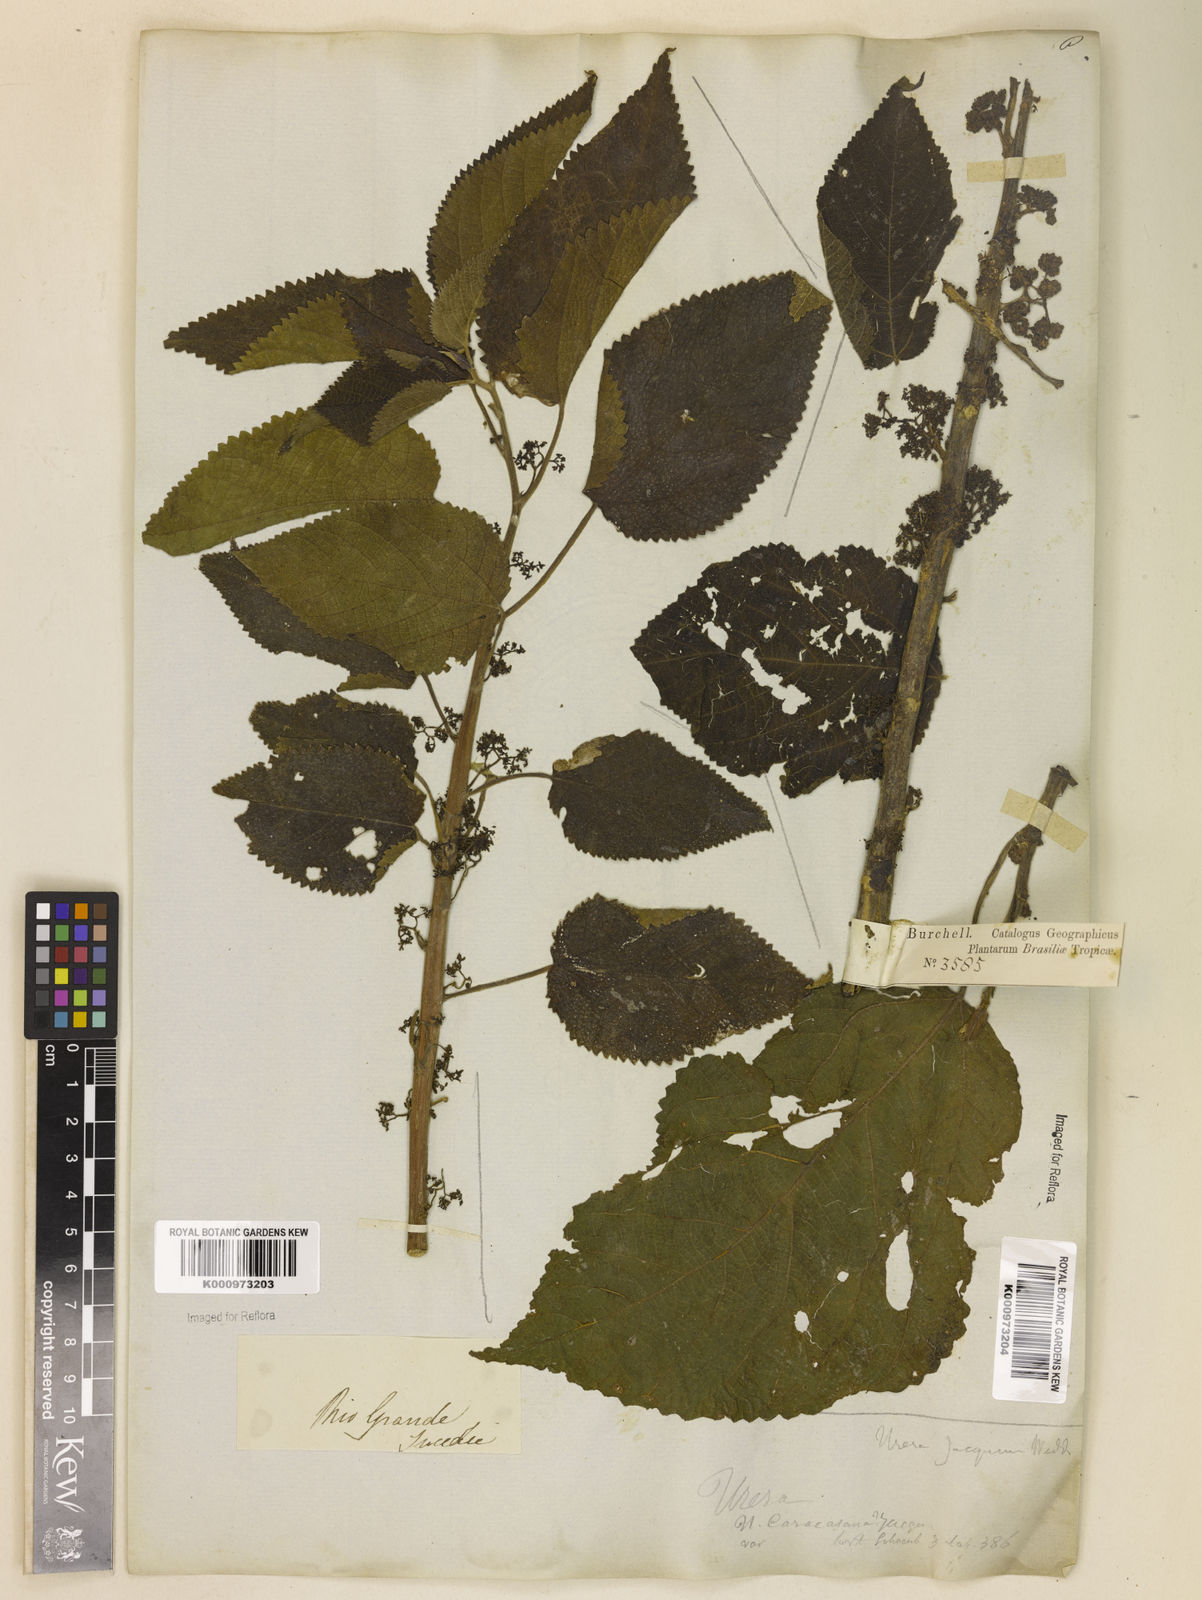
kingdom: Plantae
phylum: Tracheophyta
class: Magnoliopsida
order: Rosales
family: Urticaceae
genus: Urera
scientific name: Urera caracasana
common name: Flameberry
